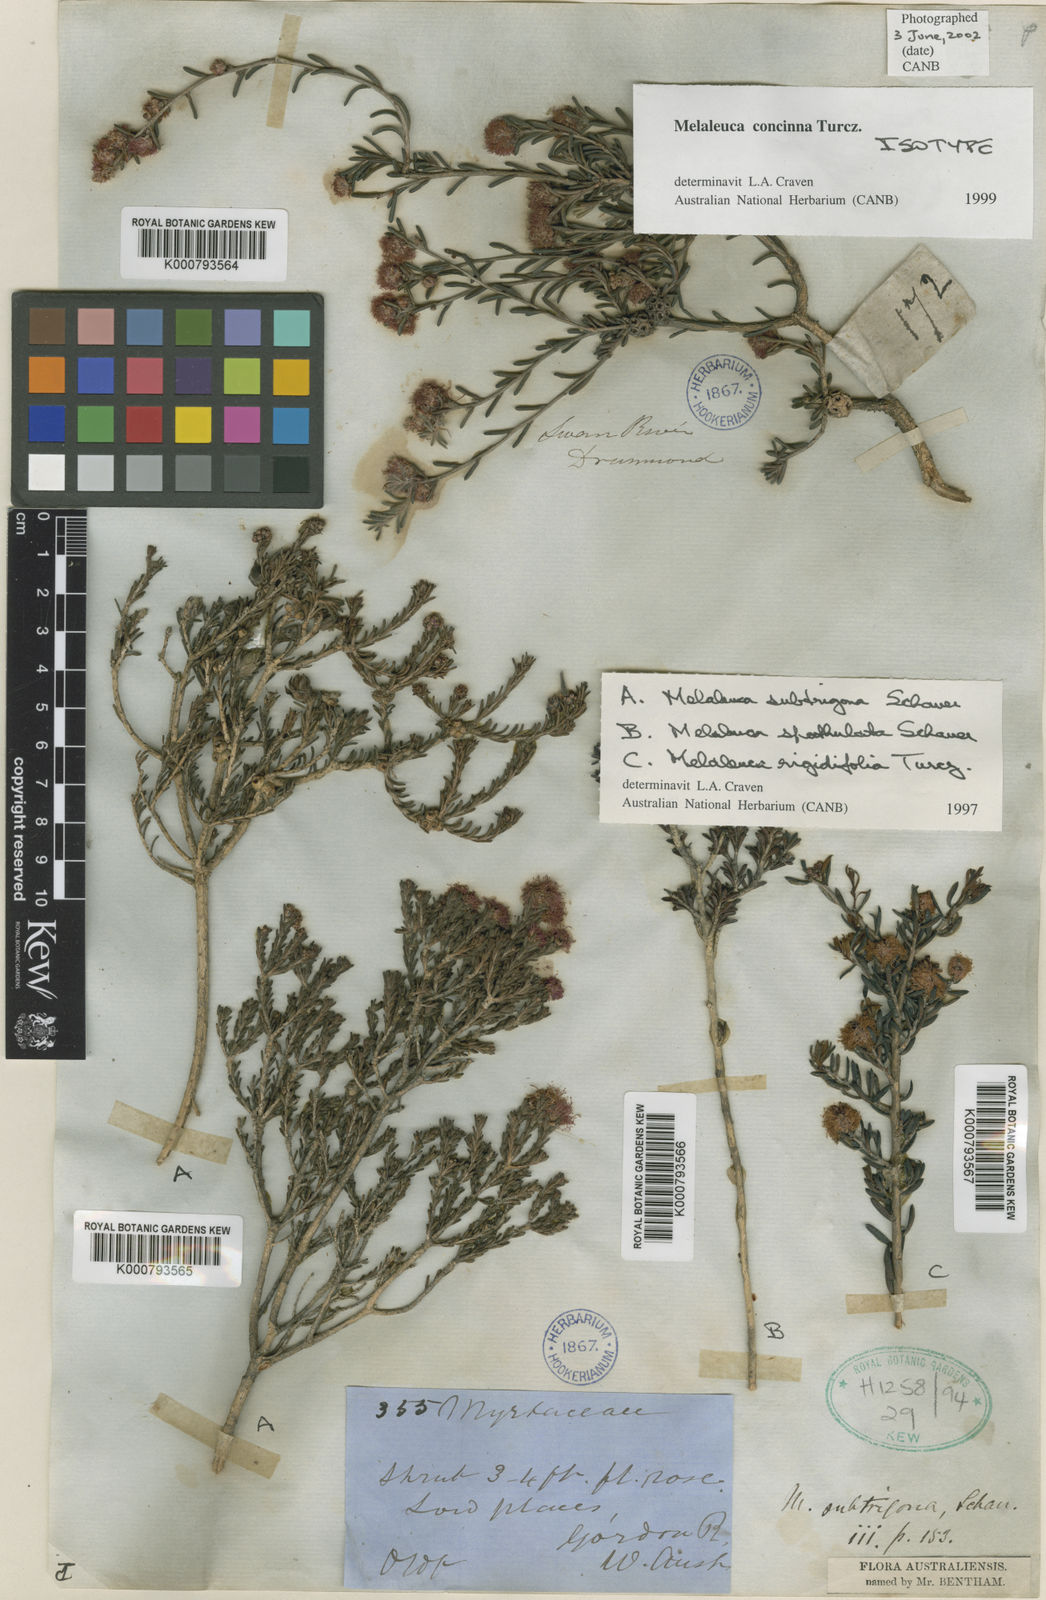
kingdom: Plantae
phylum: Tracheophyta
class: Magnoliopsida
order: Myrtales
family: Myrtaceae
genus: Melaleuca
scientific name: Melaleuca concinna
